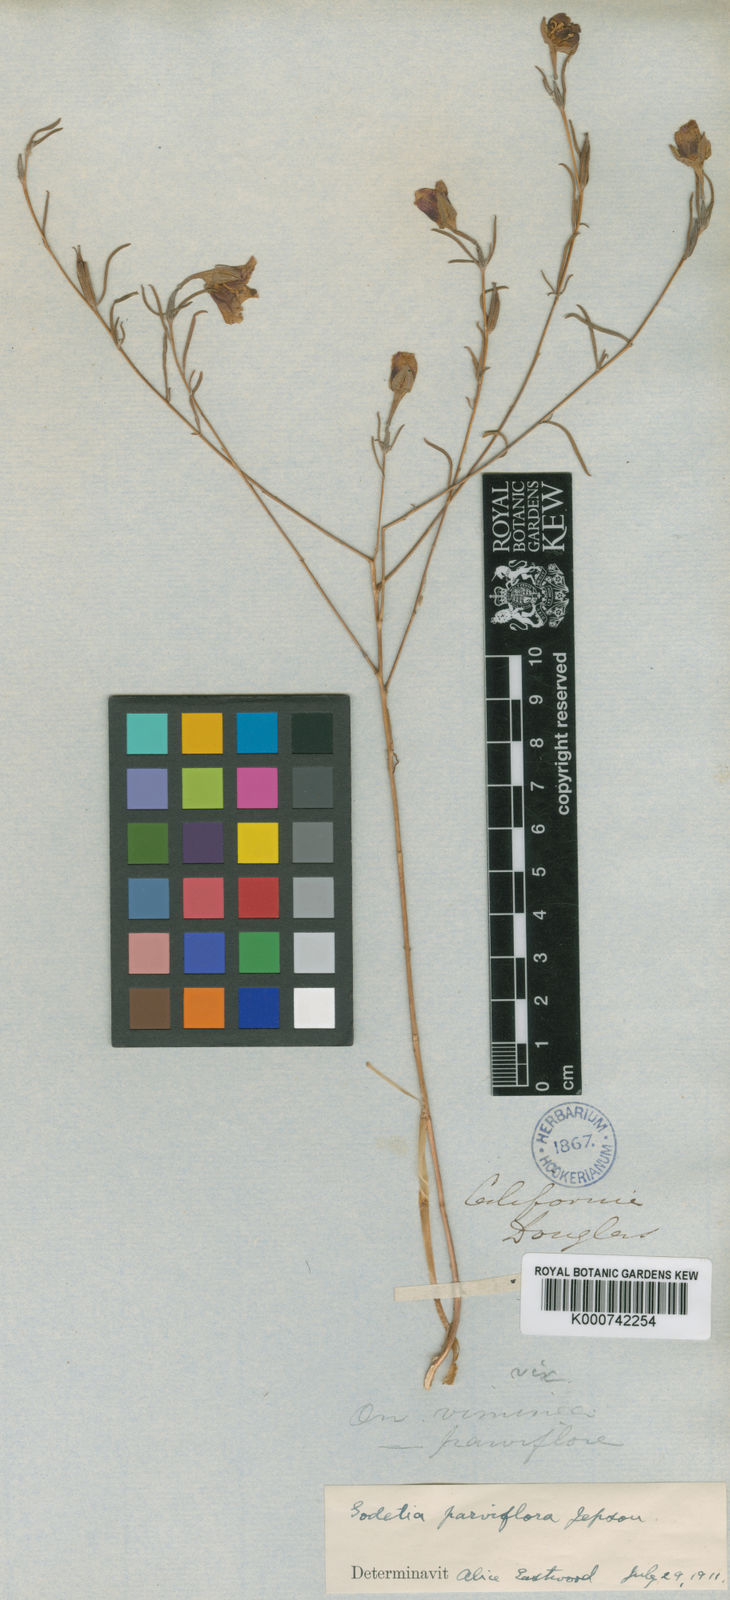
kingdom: Plantae
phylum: Tracheophyta
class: Magnoliopsida
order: Myrtales
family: Onagraceae
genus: Clarkia
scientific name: Clarkia speciosa
